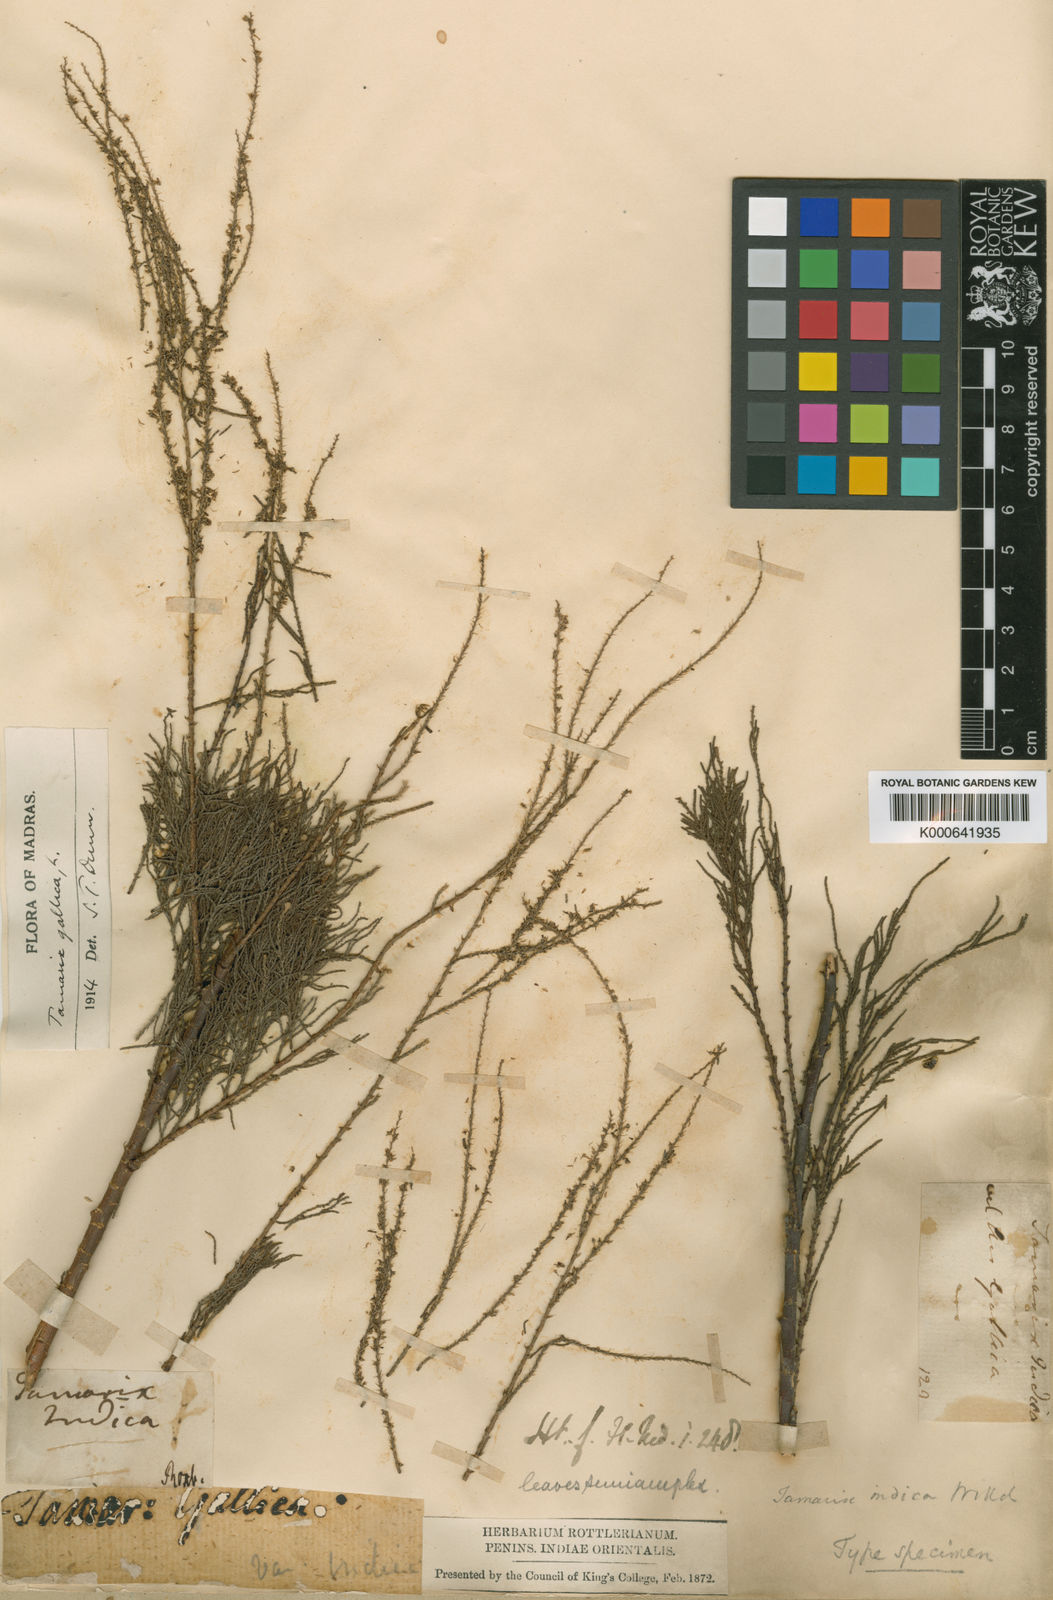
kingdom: Plantae
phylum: Tracheophyta
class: Magnoliopsida
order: Caryophyllales
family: Tamaricaceae
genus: Tamarix
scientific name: Tamarix gallica
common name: Tamarisk
